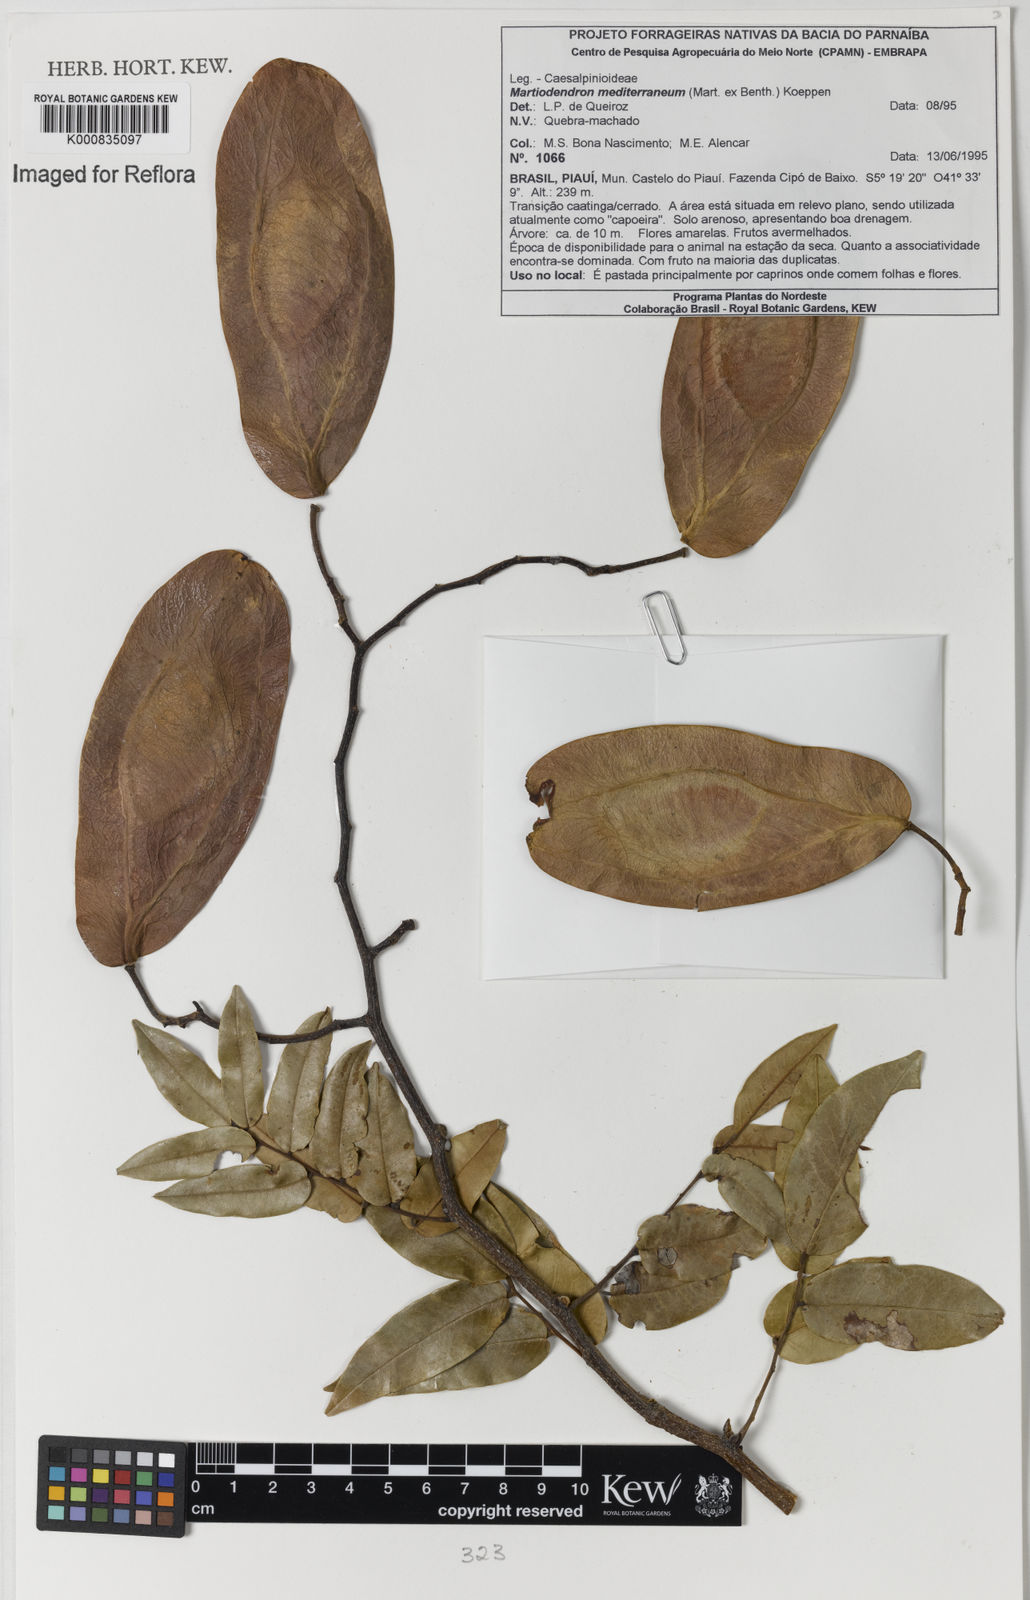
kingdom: Plantae
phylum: Tracheophyta
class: Magnoliopsida
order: Fabales
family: Fabaceae
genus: Martiodendron
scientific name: Martiodendron
